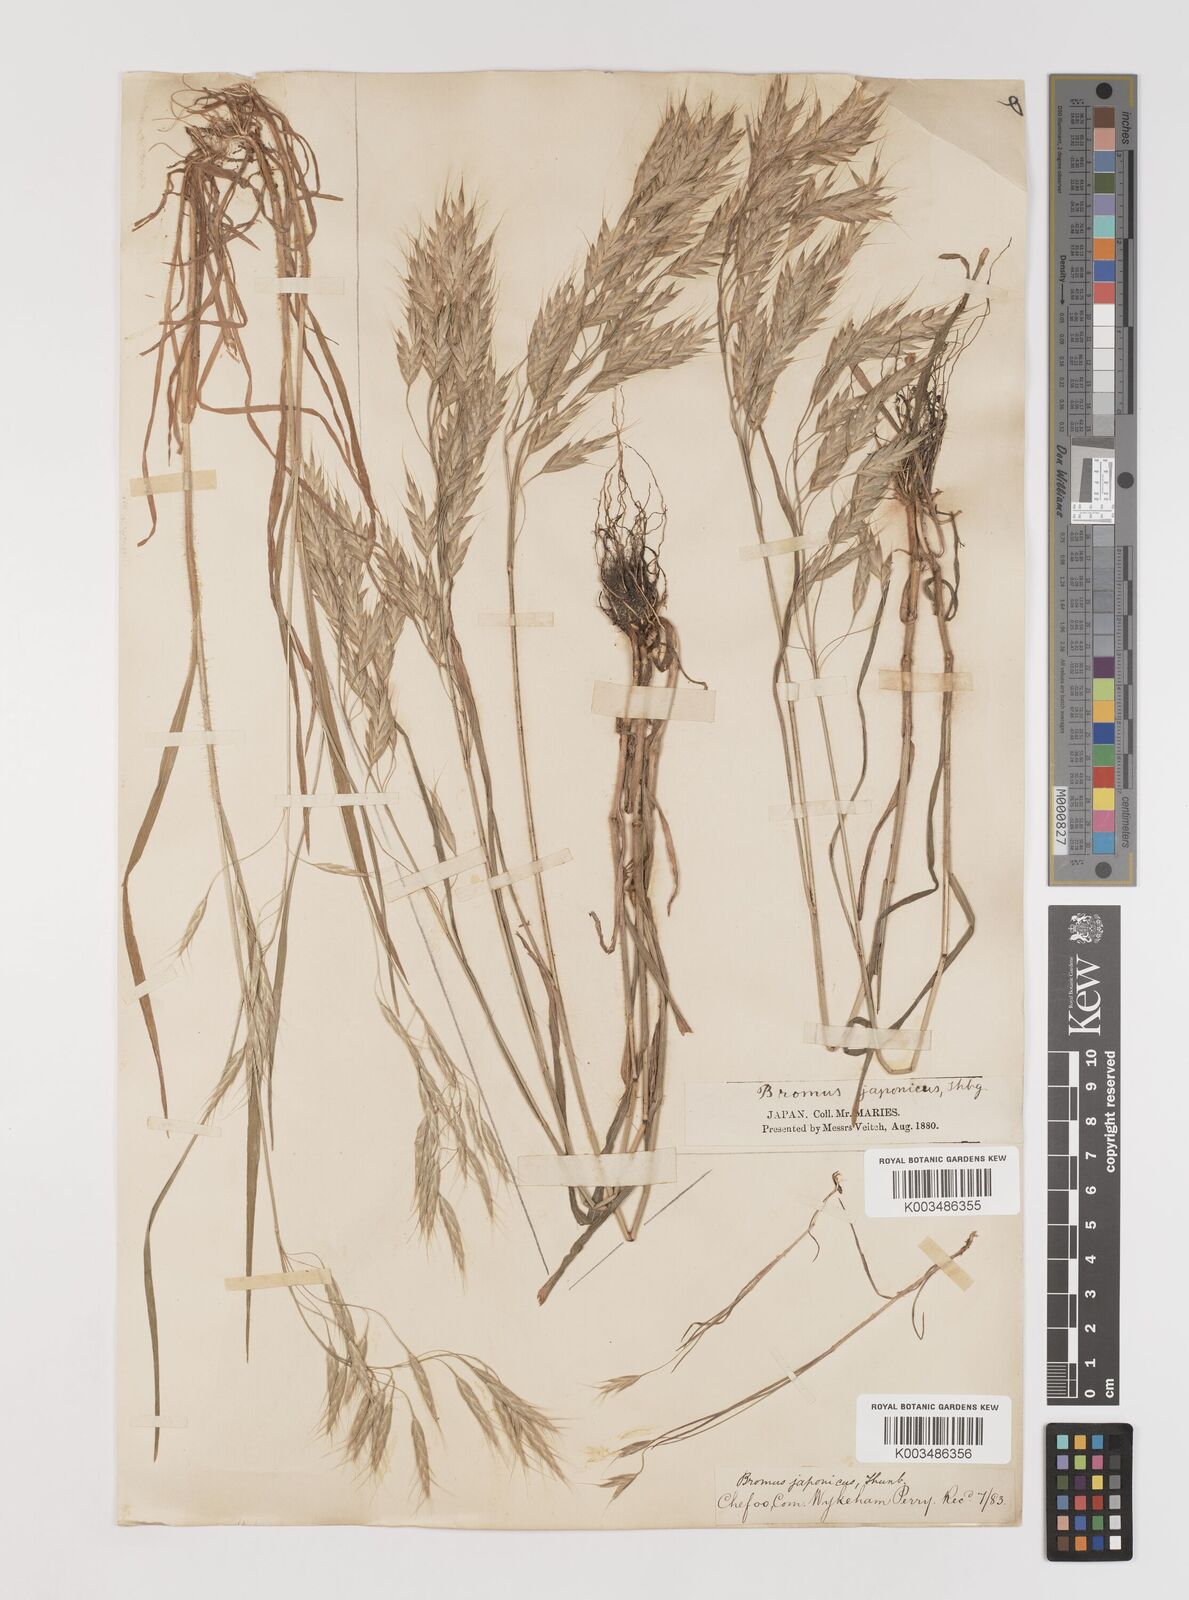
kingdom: Plantae
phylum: Tracheophyta
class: Liliopsida
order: Poales
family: Poaceae
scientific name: Poaceae
